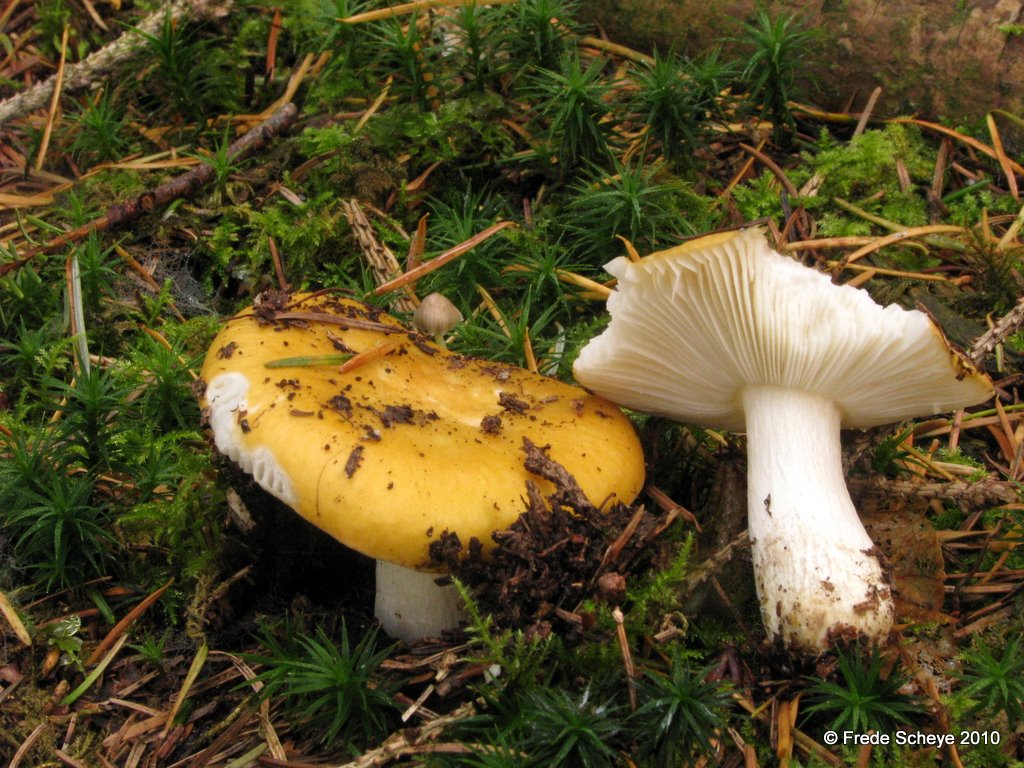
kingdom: Fungi
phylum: Basidiomycota
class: Agaricomycetes
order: Russulales
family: Russulaceae
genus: Russula
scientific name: Russula ochroleuca
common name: okkergul skørhat
